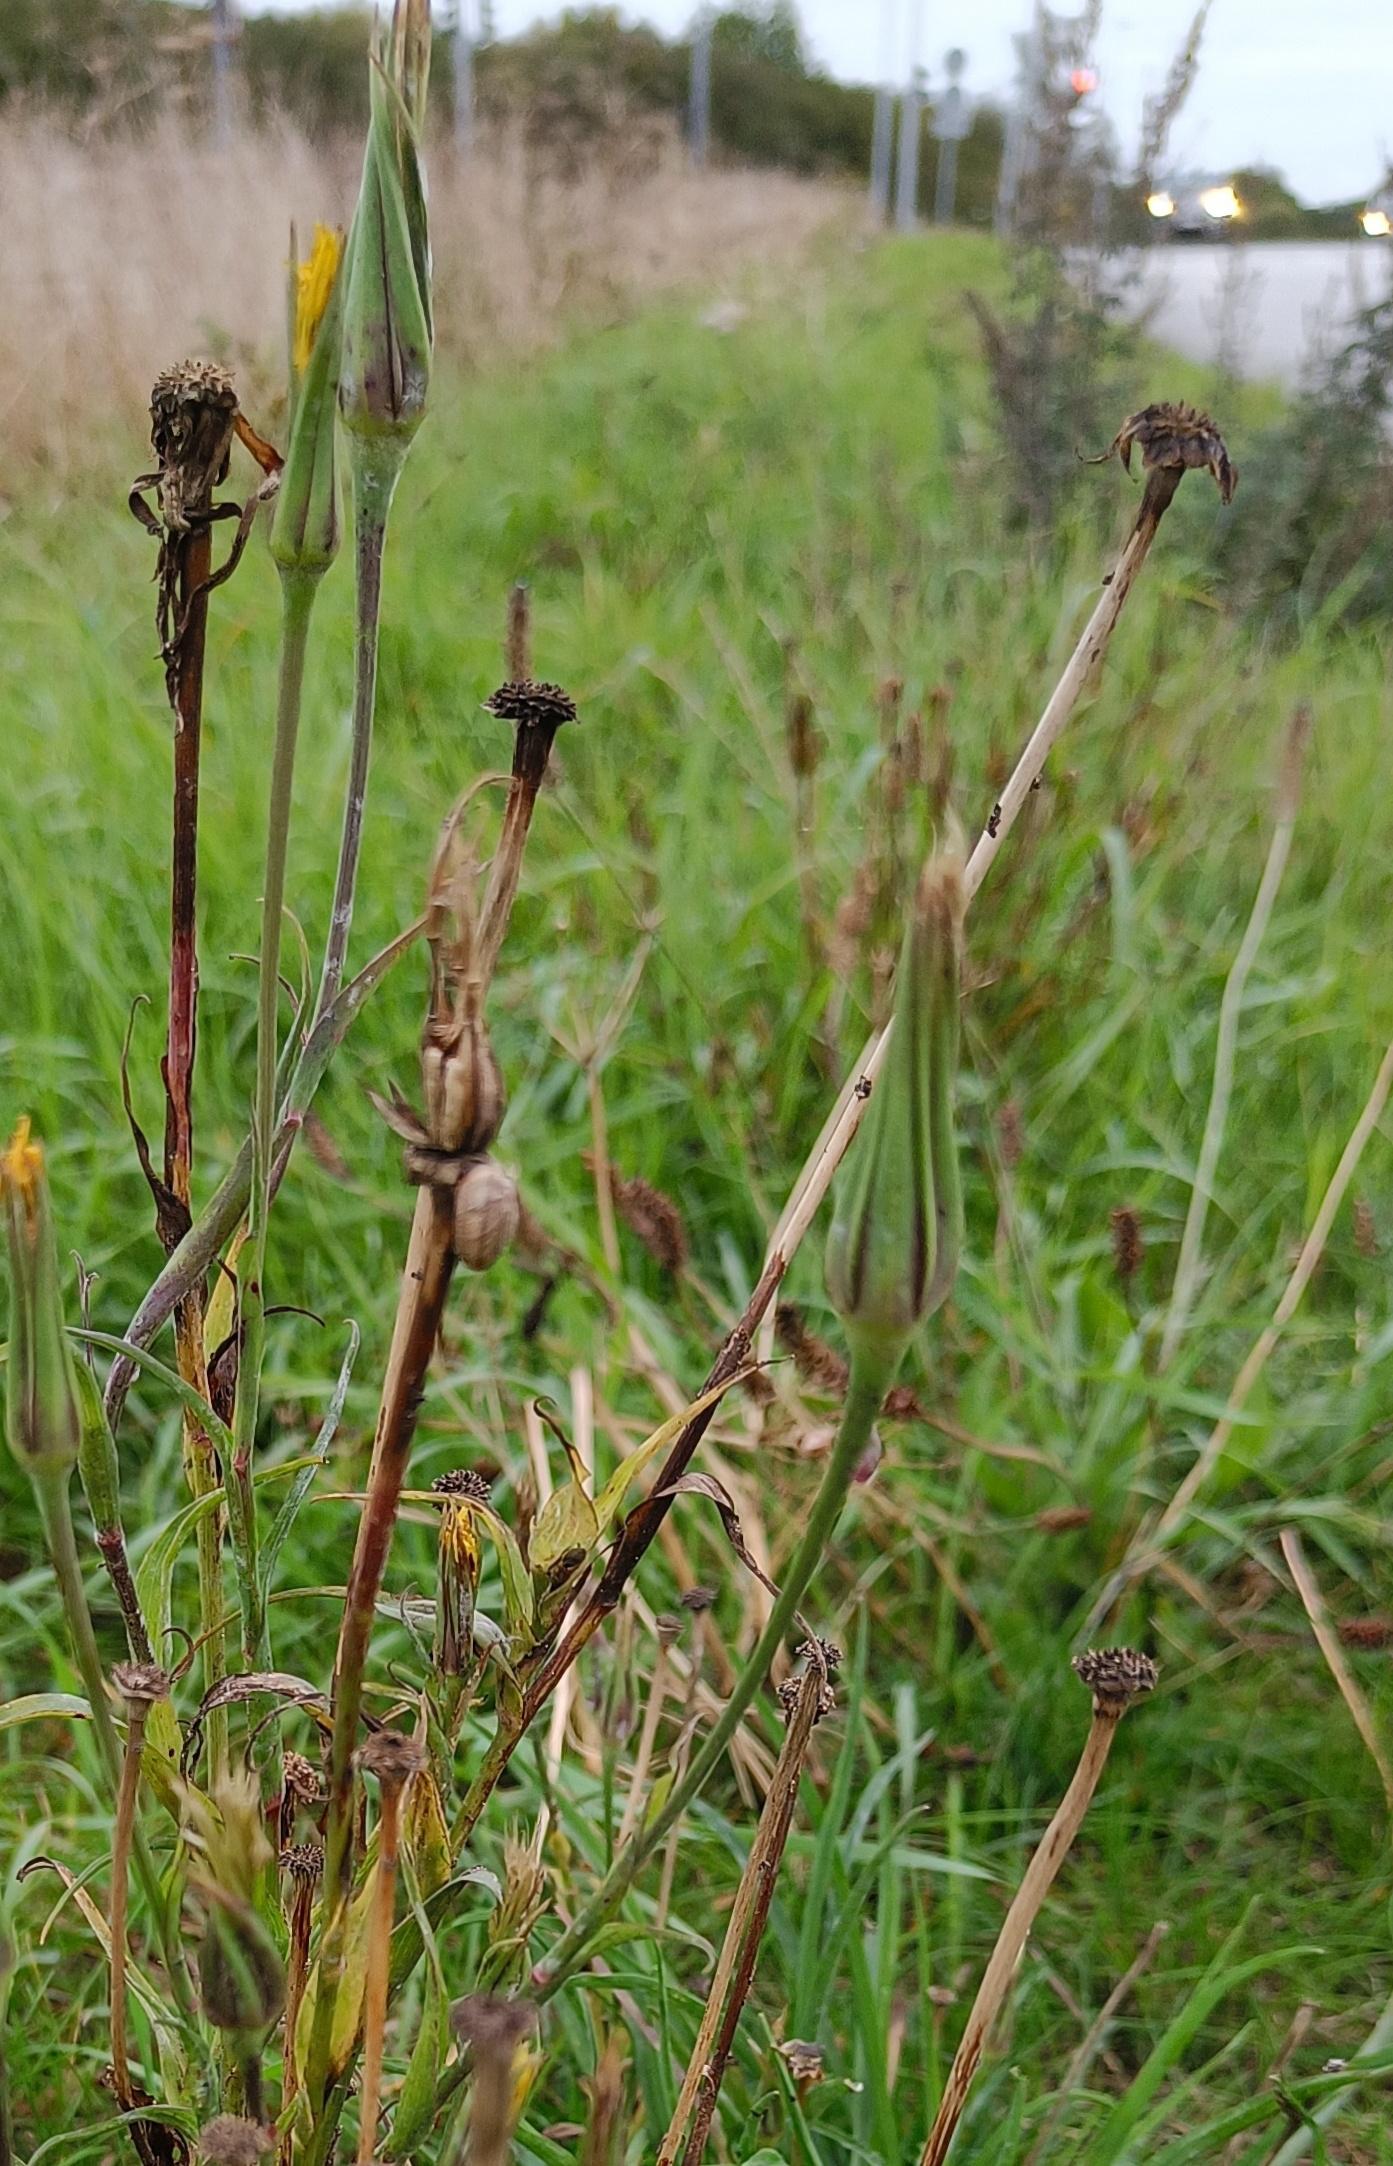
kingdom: Plantae
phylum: Tracheophyta
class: Magnoliopsida
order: Asterales
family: Asteraceae
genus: Tragopogon
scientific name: Tragopogon pratensis
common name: Gedeskæg
